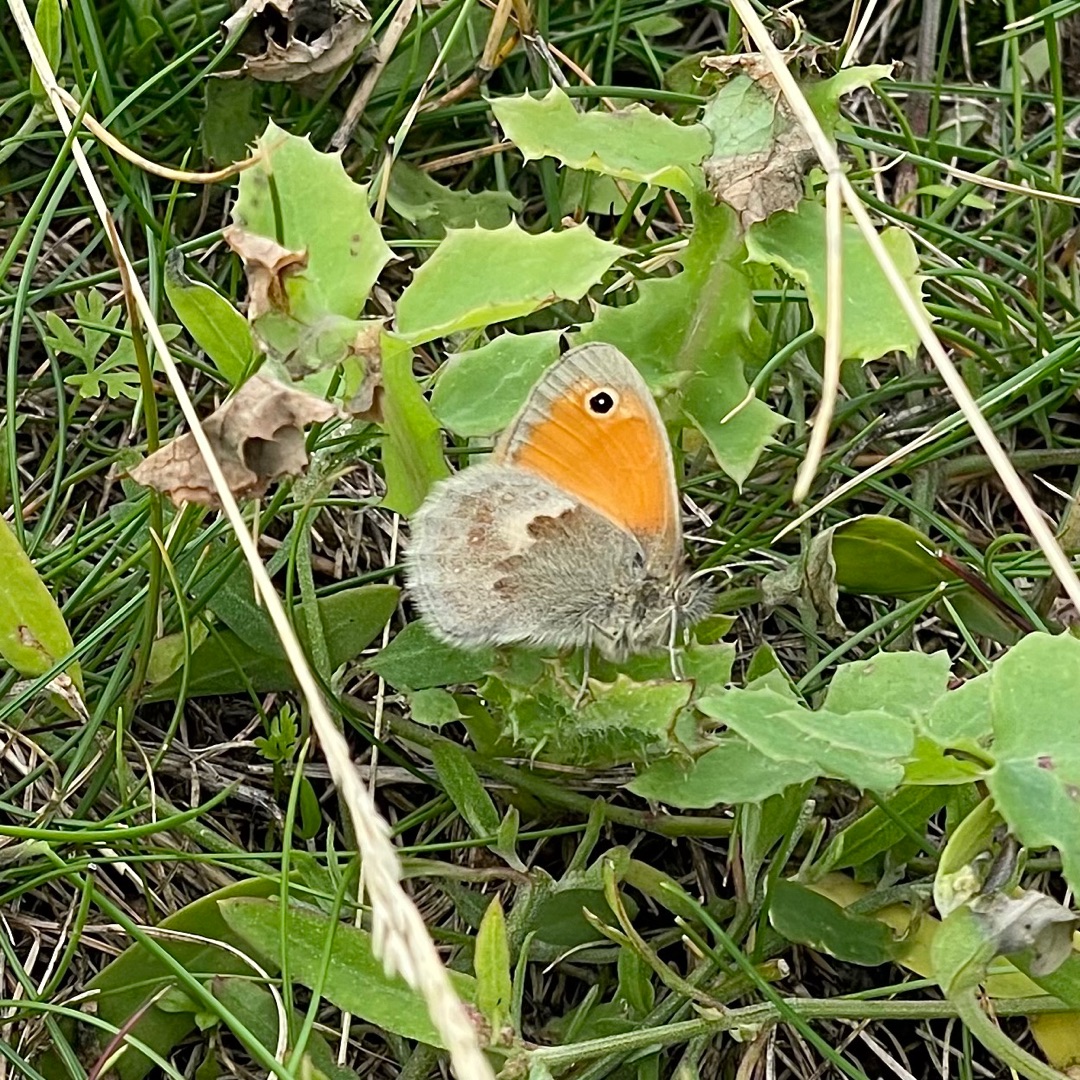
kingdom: Animalia
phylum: Arthropoda
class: Insecta
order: Lepidoptera
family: Nymphalidae
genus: Coenonympha
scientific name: Coenonympha pamphilus
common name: Okkergul randøje
